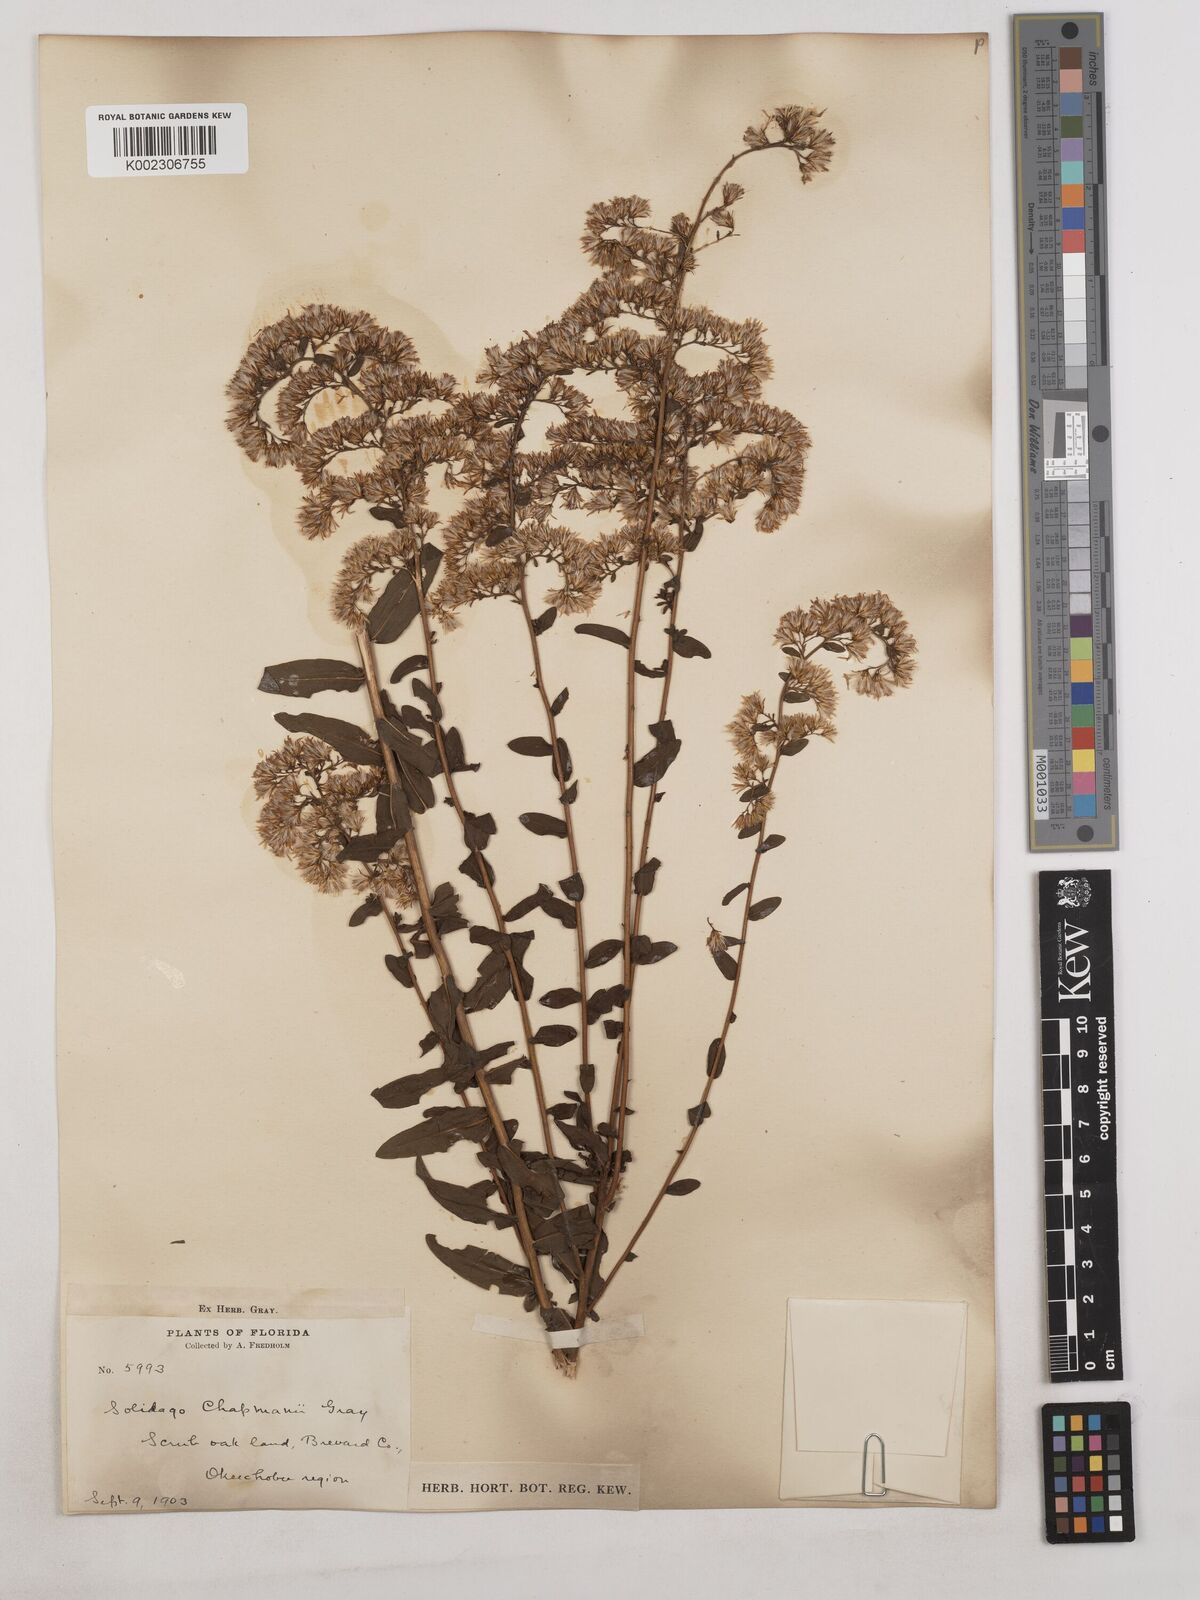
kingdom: Plantae
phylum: Tracheophyta
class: Magnoliopsida
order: Asterales
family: Asteraceae
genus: Solidago
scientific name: Solidago chapmanii
